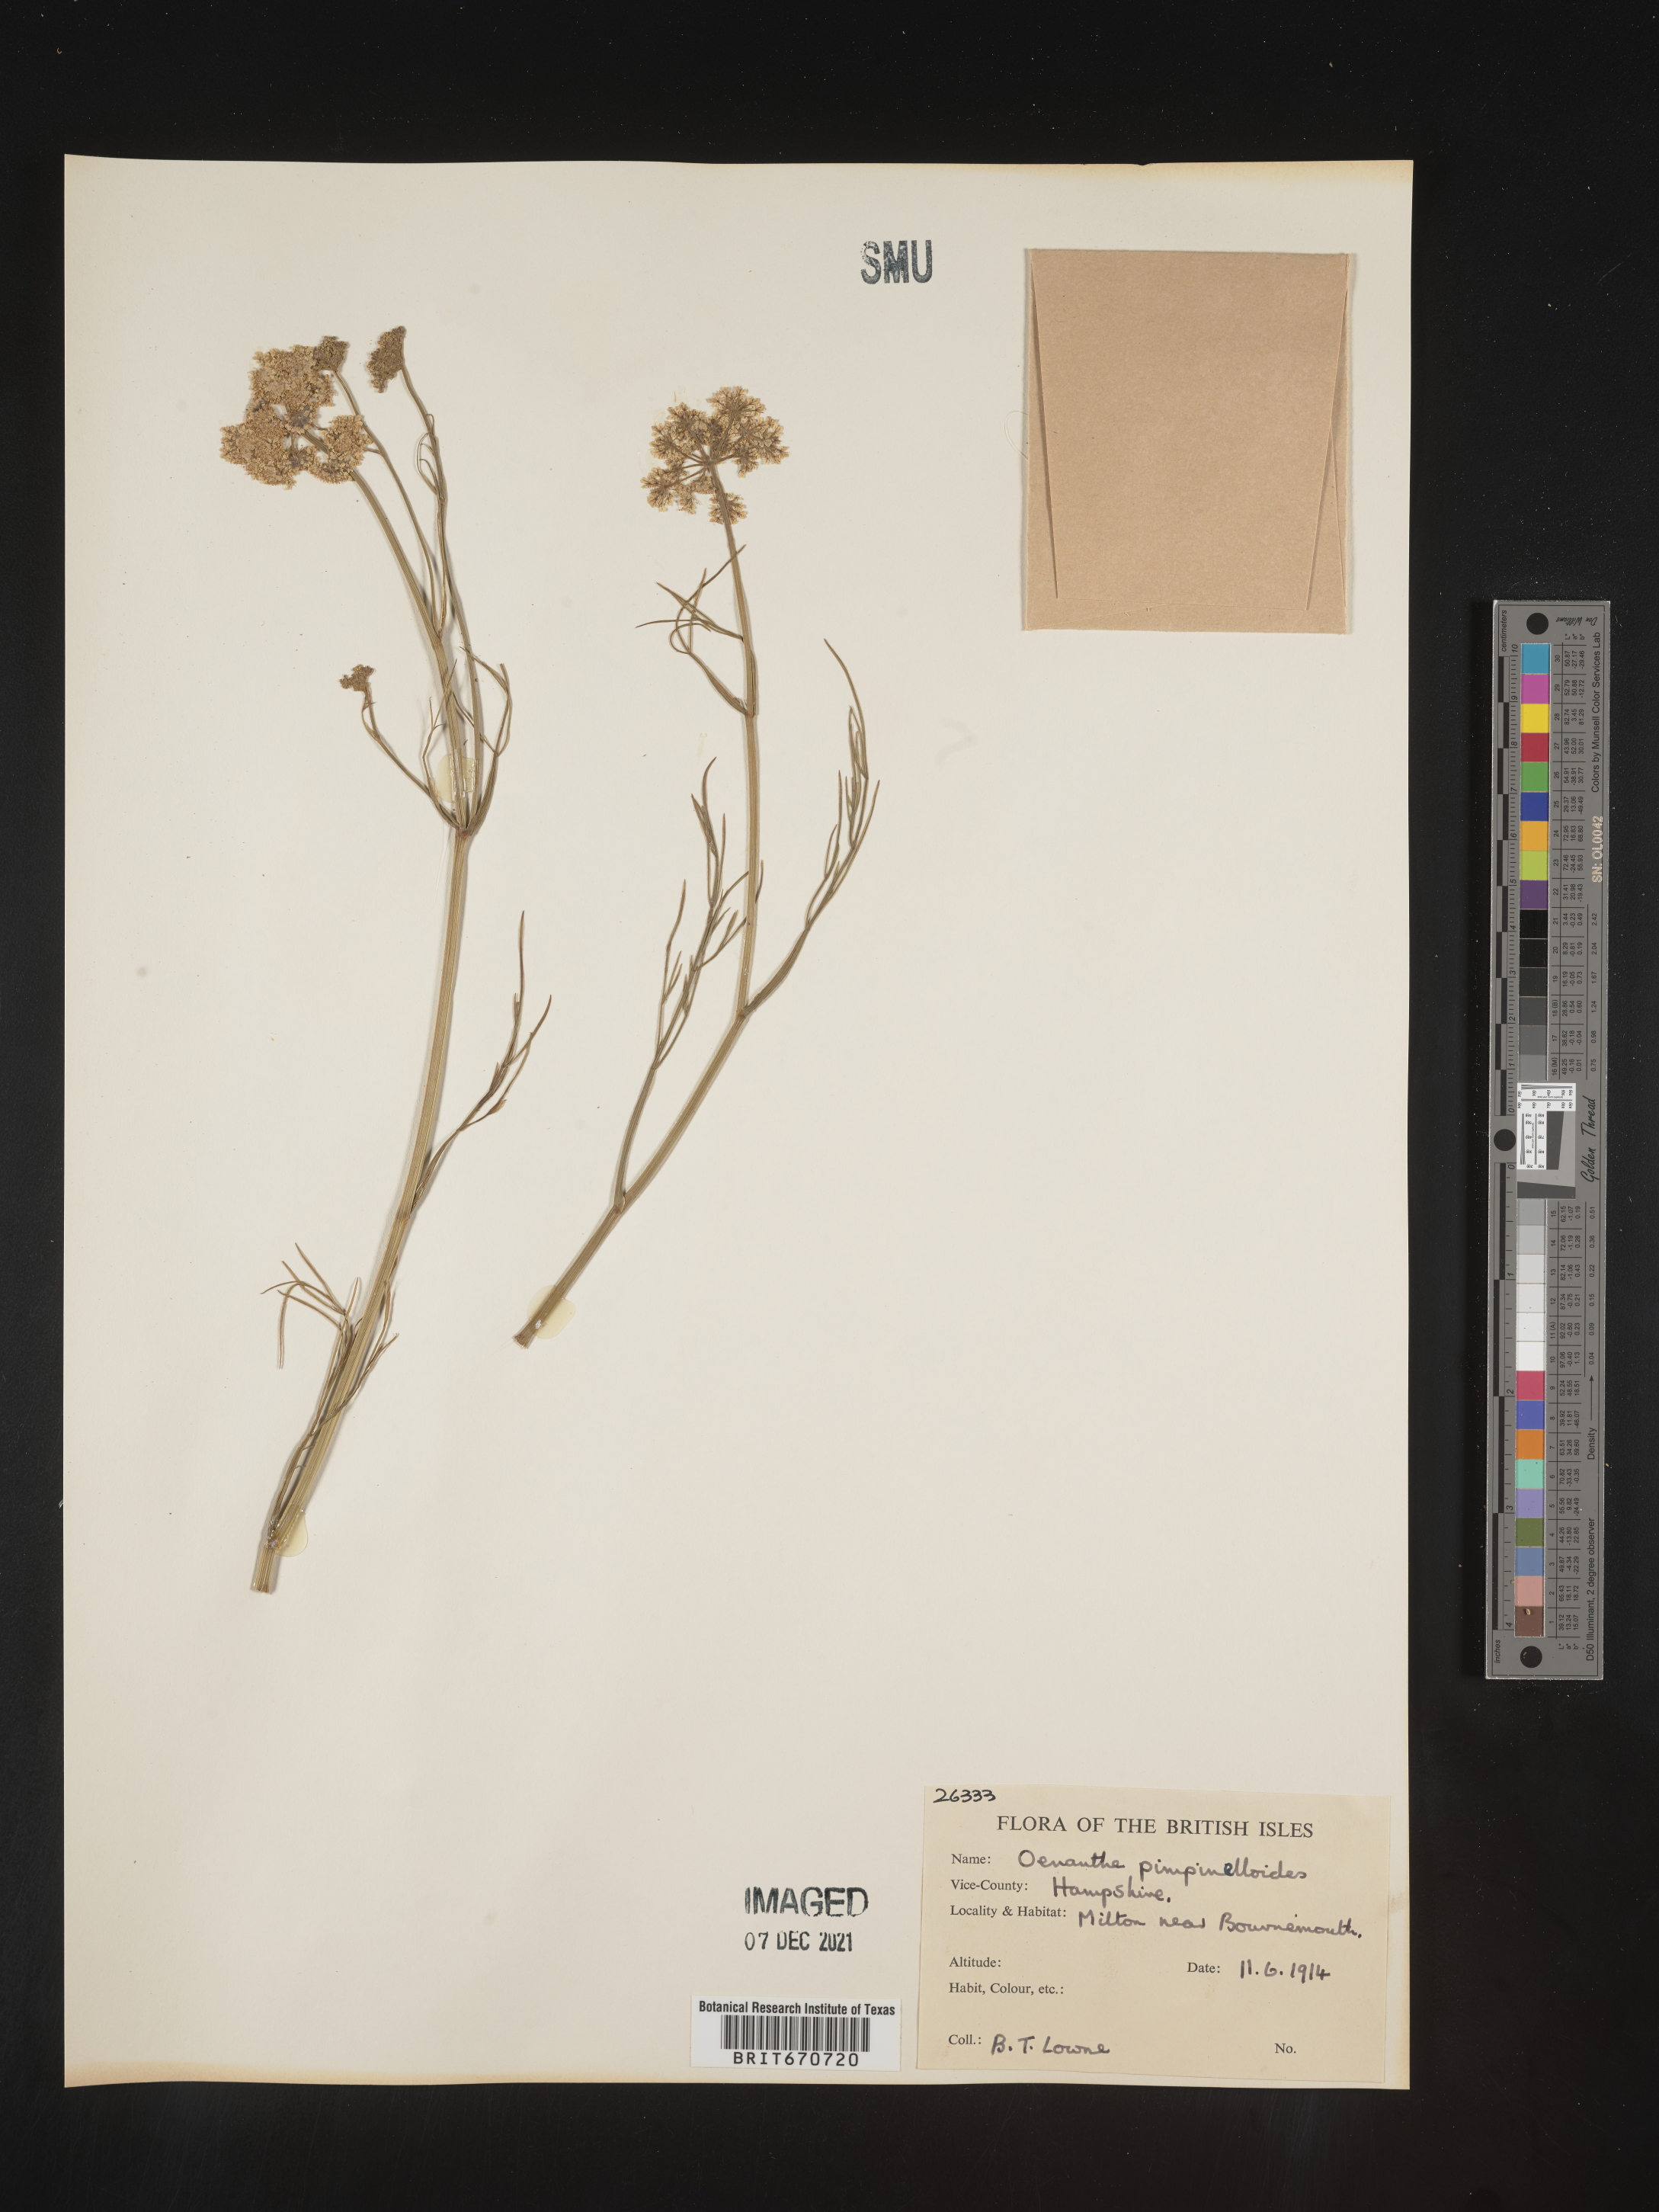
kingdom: Plantae
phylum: Tracheophyta
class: Magnoliopsida
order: Apiales
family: Apiaceae
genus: Oenanthe
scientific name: Oenanthe
